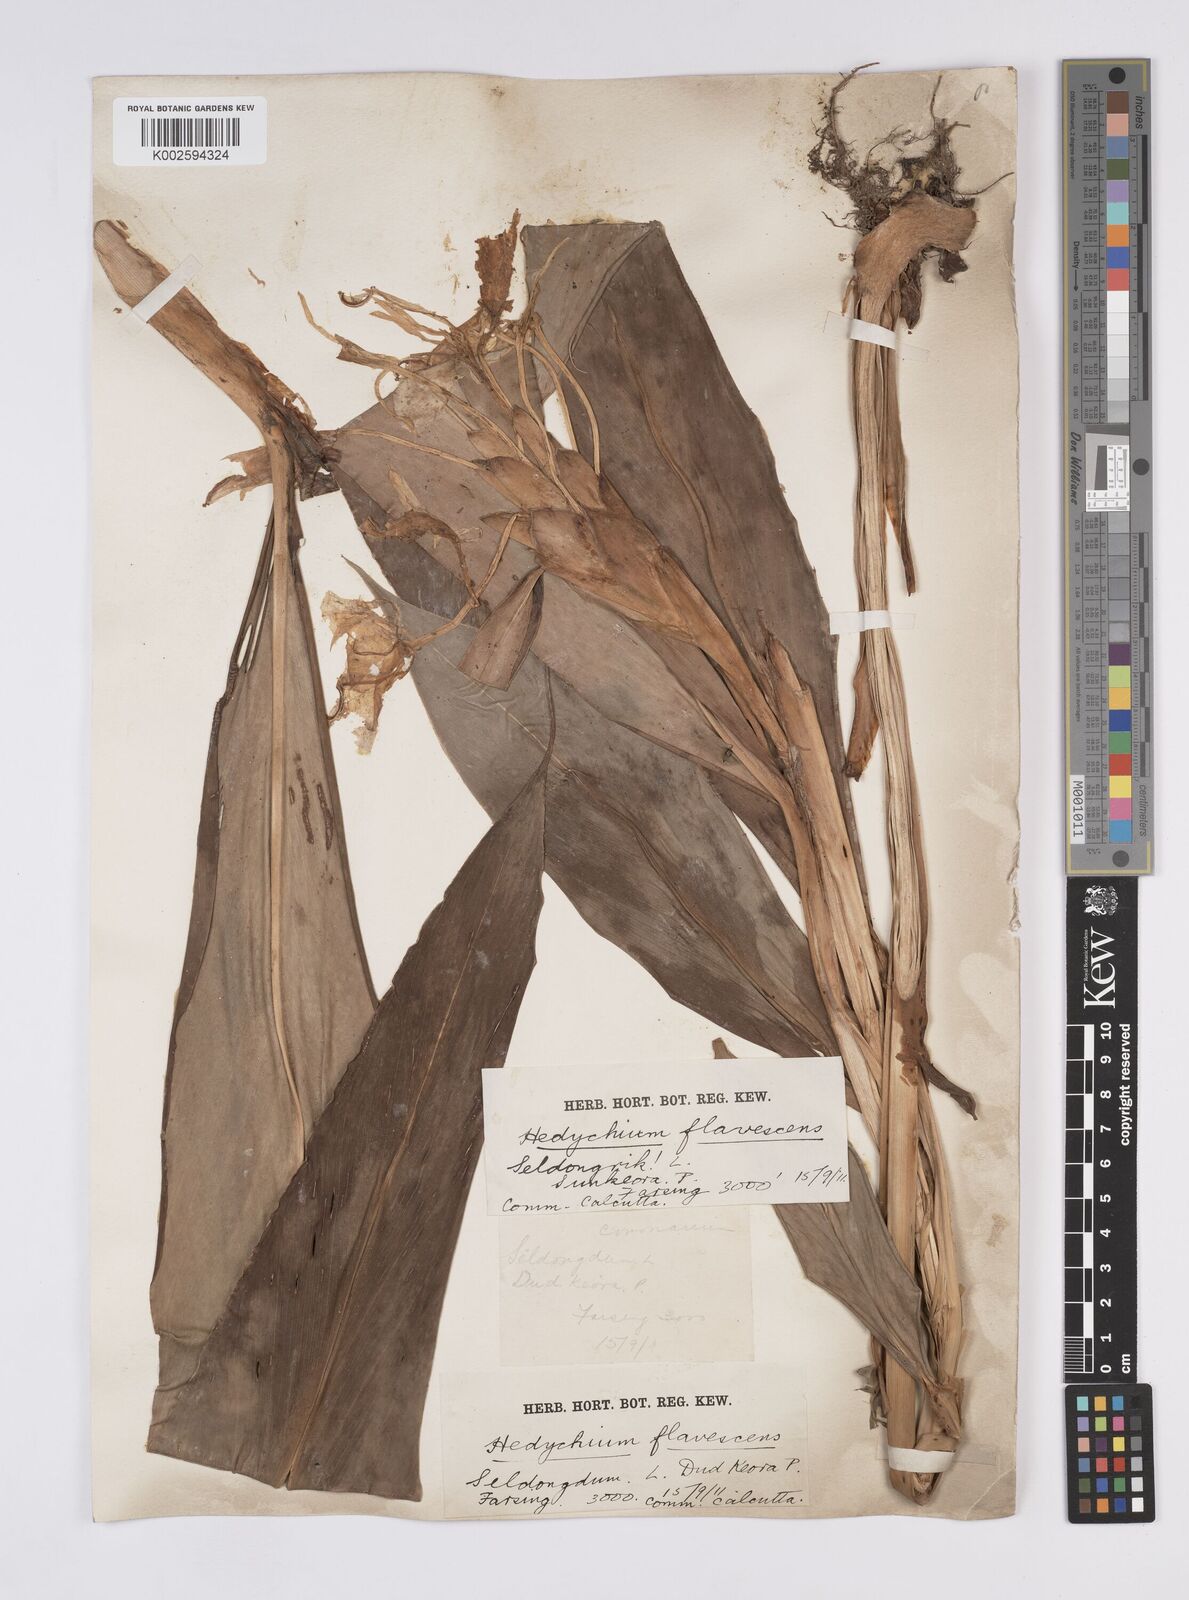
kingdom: Plantae
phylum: Tracheophyta
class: Liliopsida
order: Zingiberales
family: Zingiberaceae
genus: Hedychium
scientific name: Hedychium
